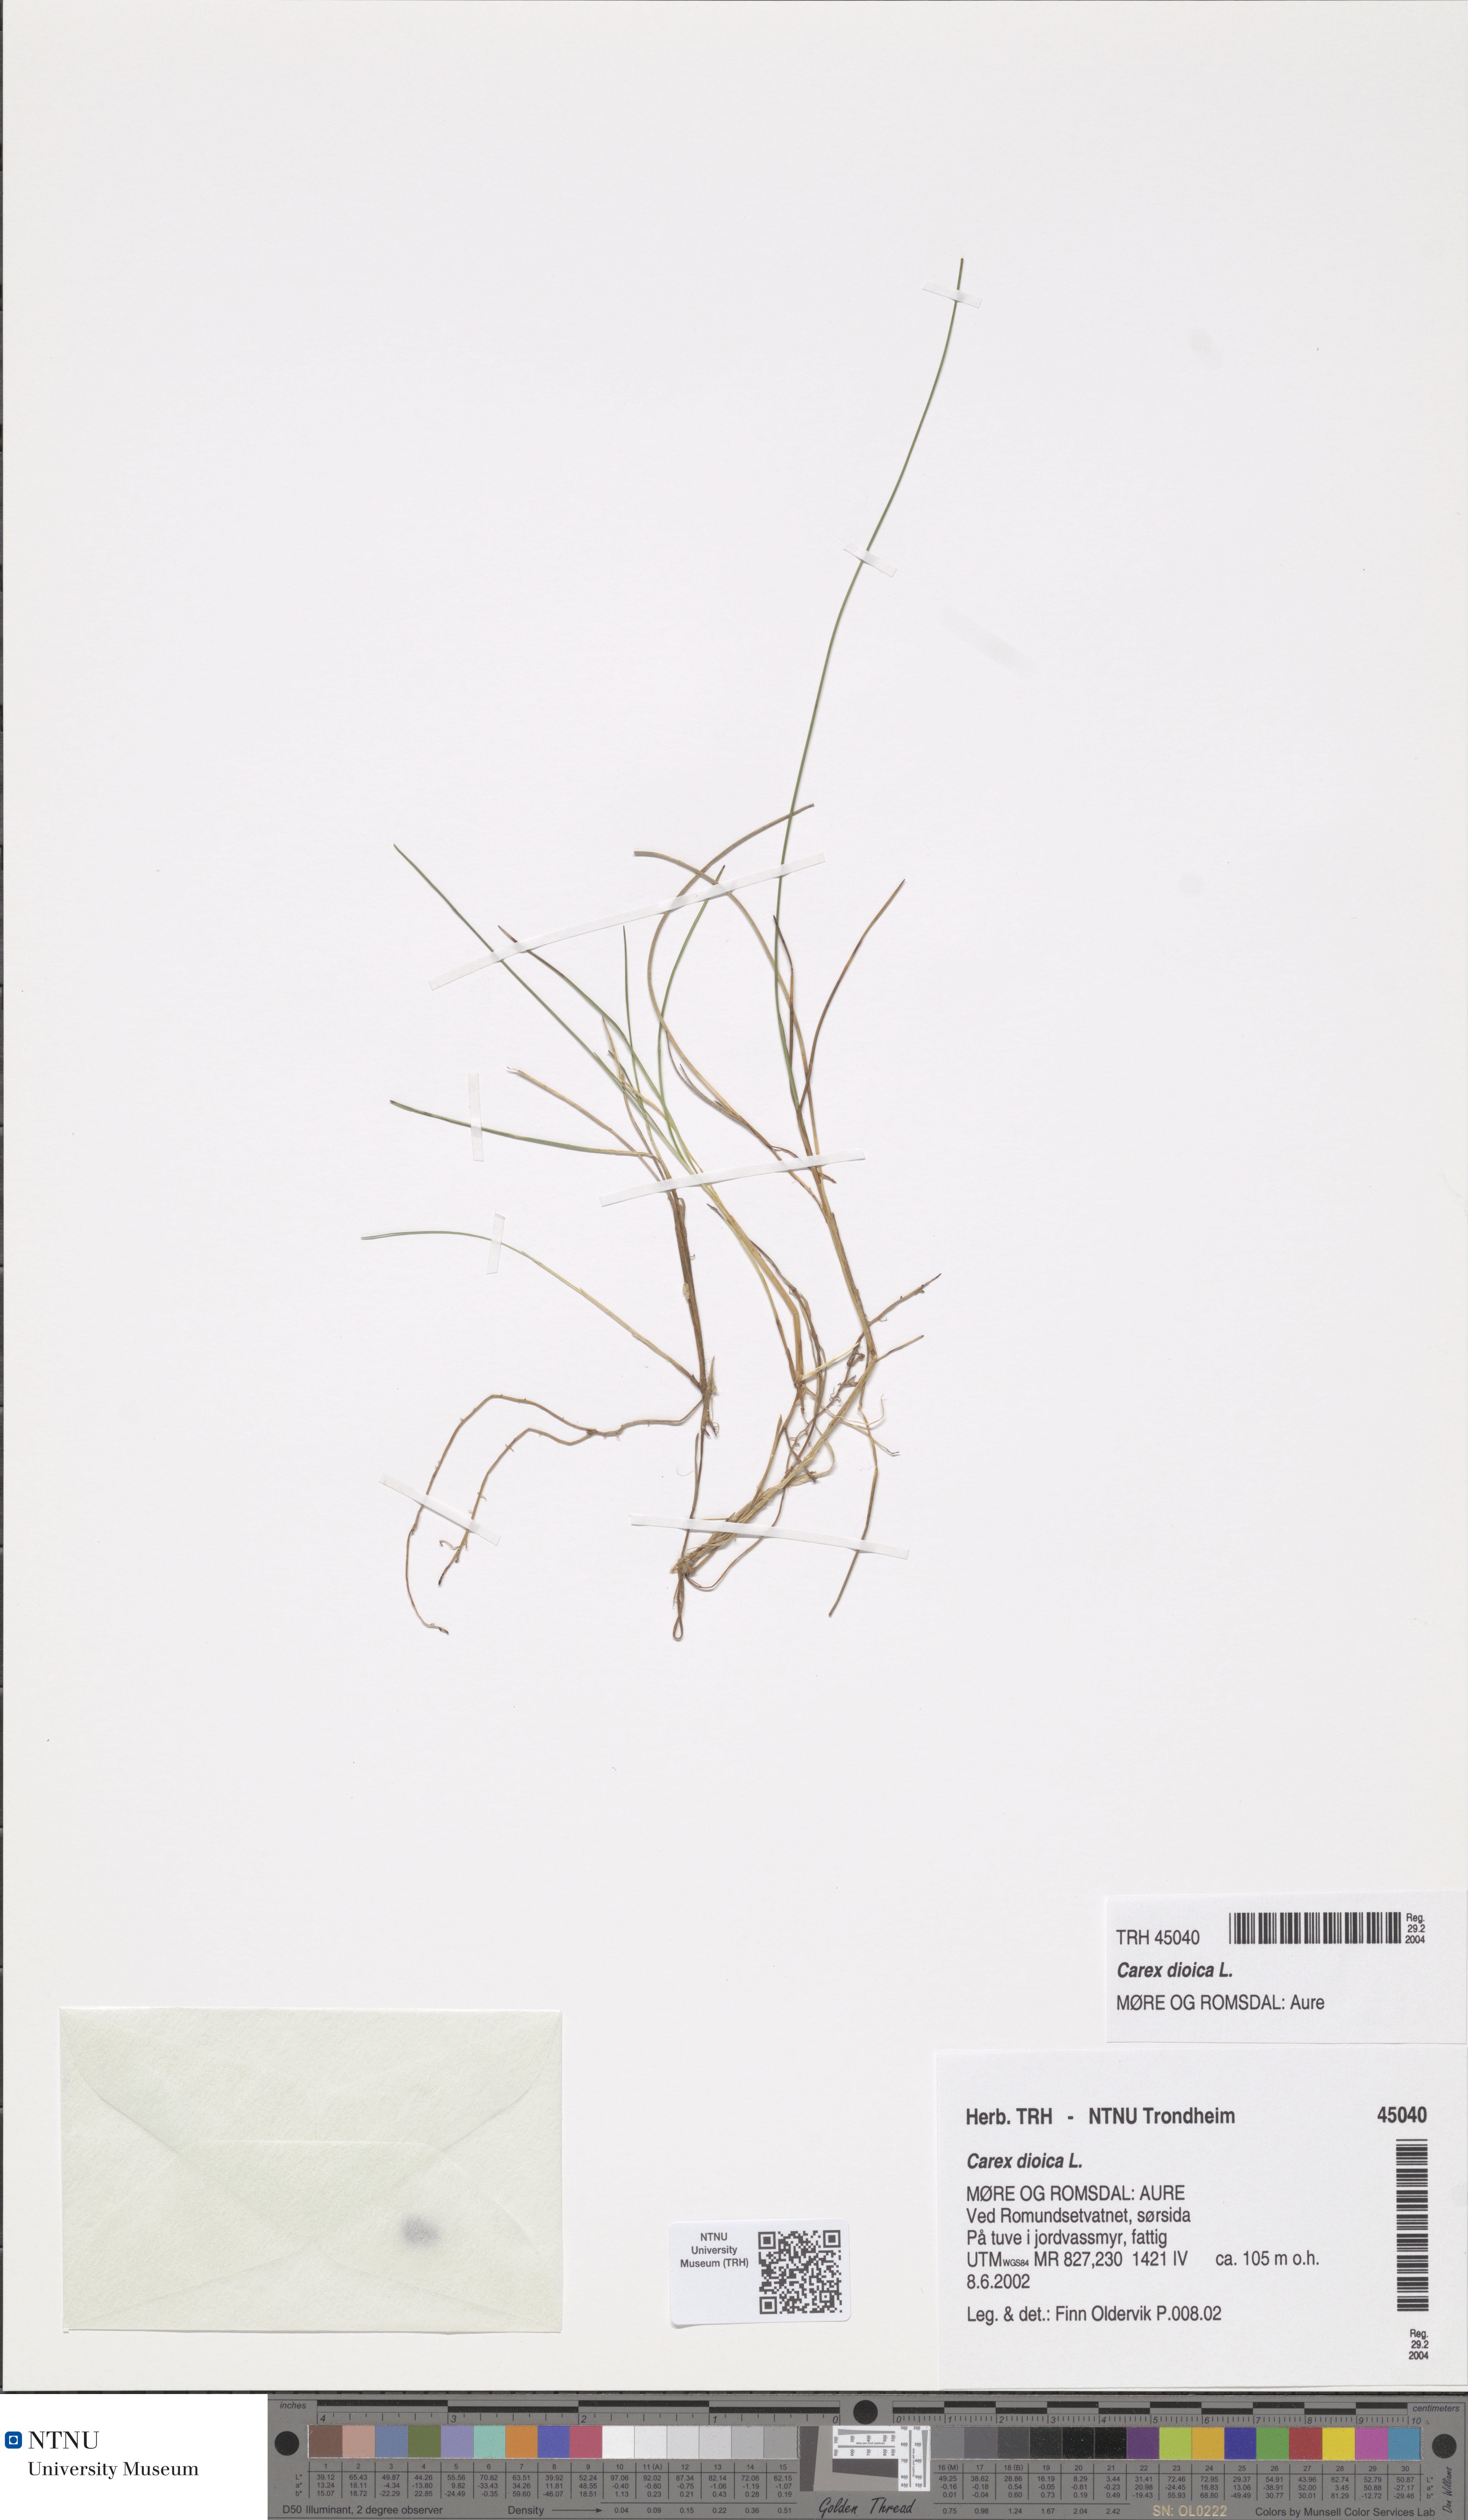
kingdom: Plantae
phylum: Tracheophyta
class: Liliopsida
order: Poales
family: Cyperaceae
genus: Carex
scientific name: Carex dioica
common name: Dioecious sedge
